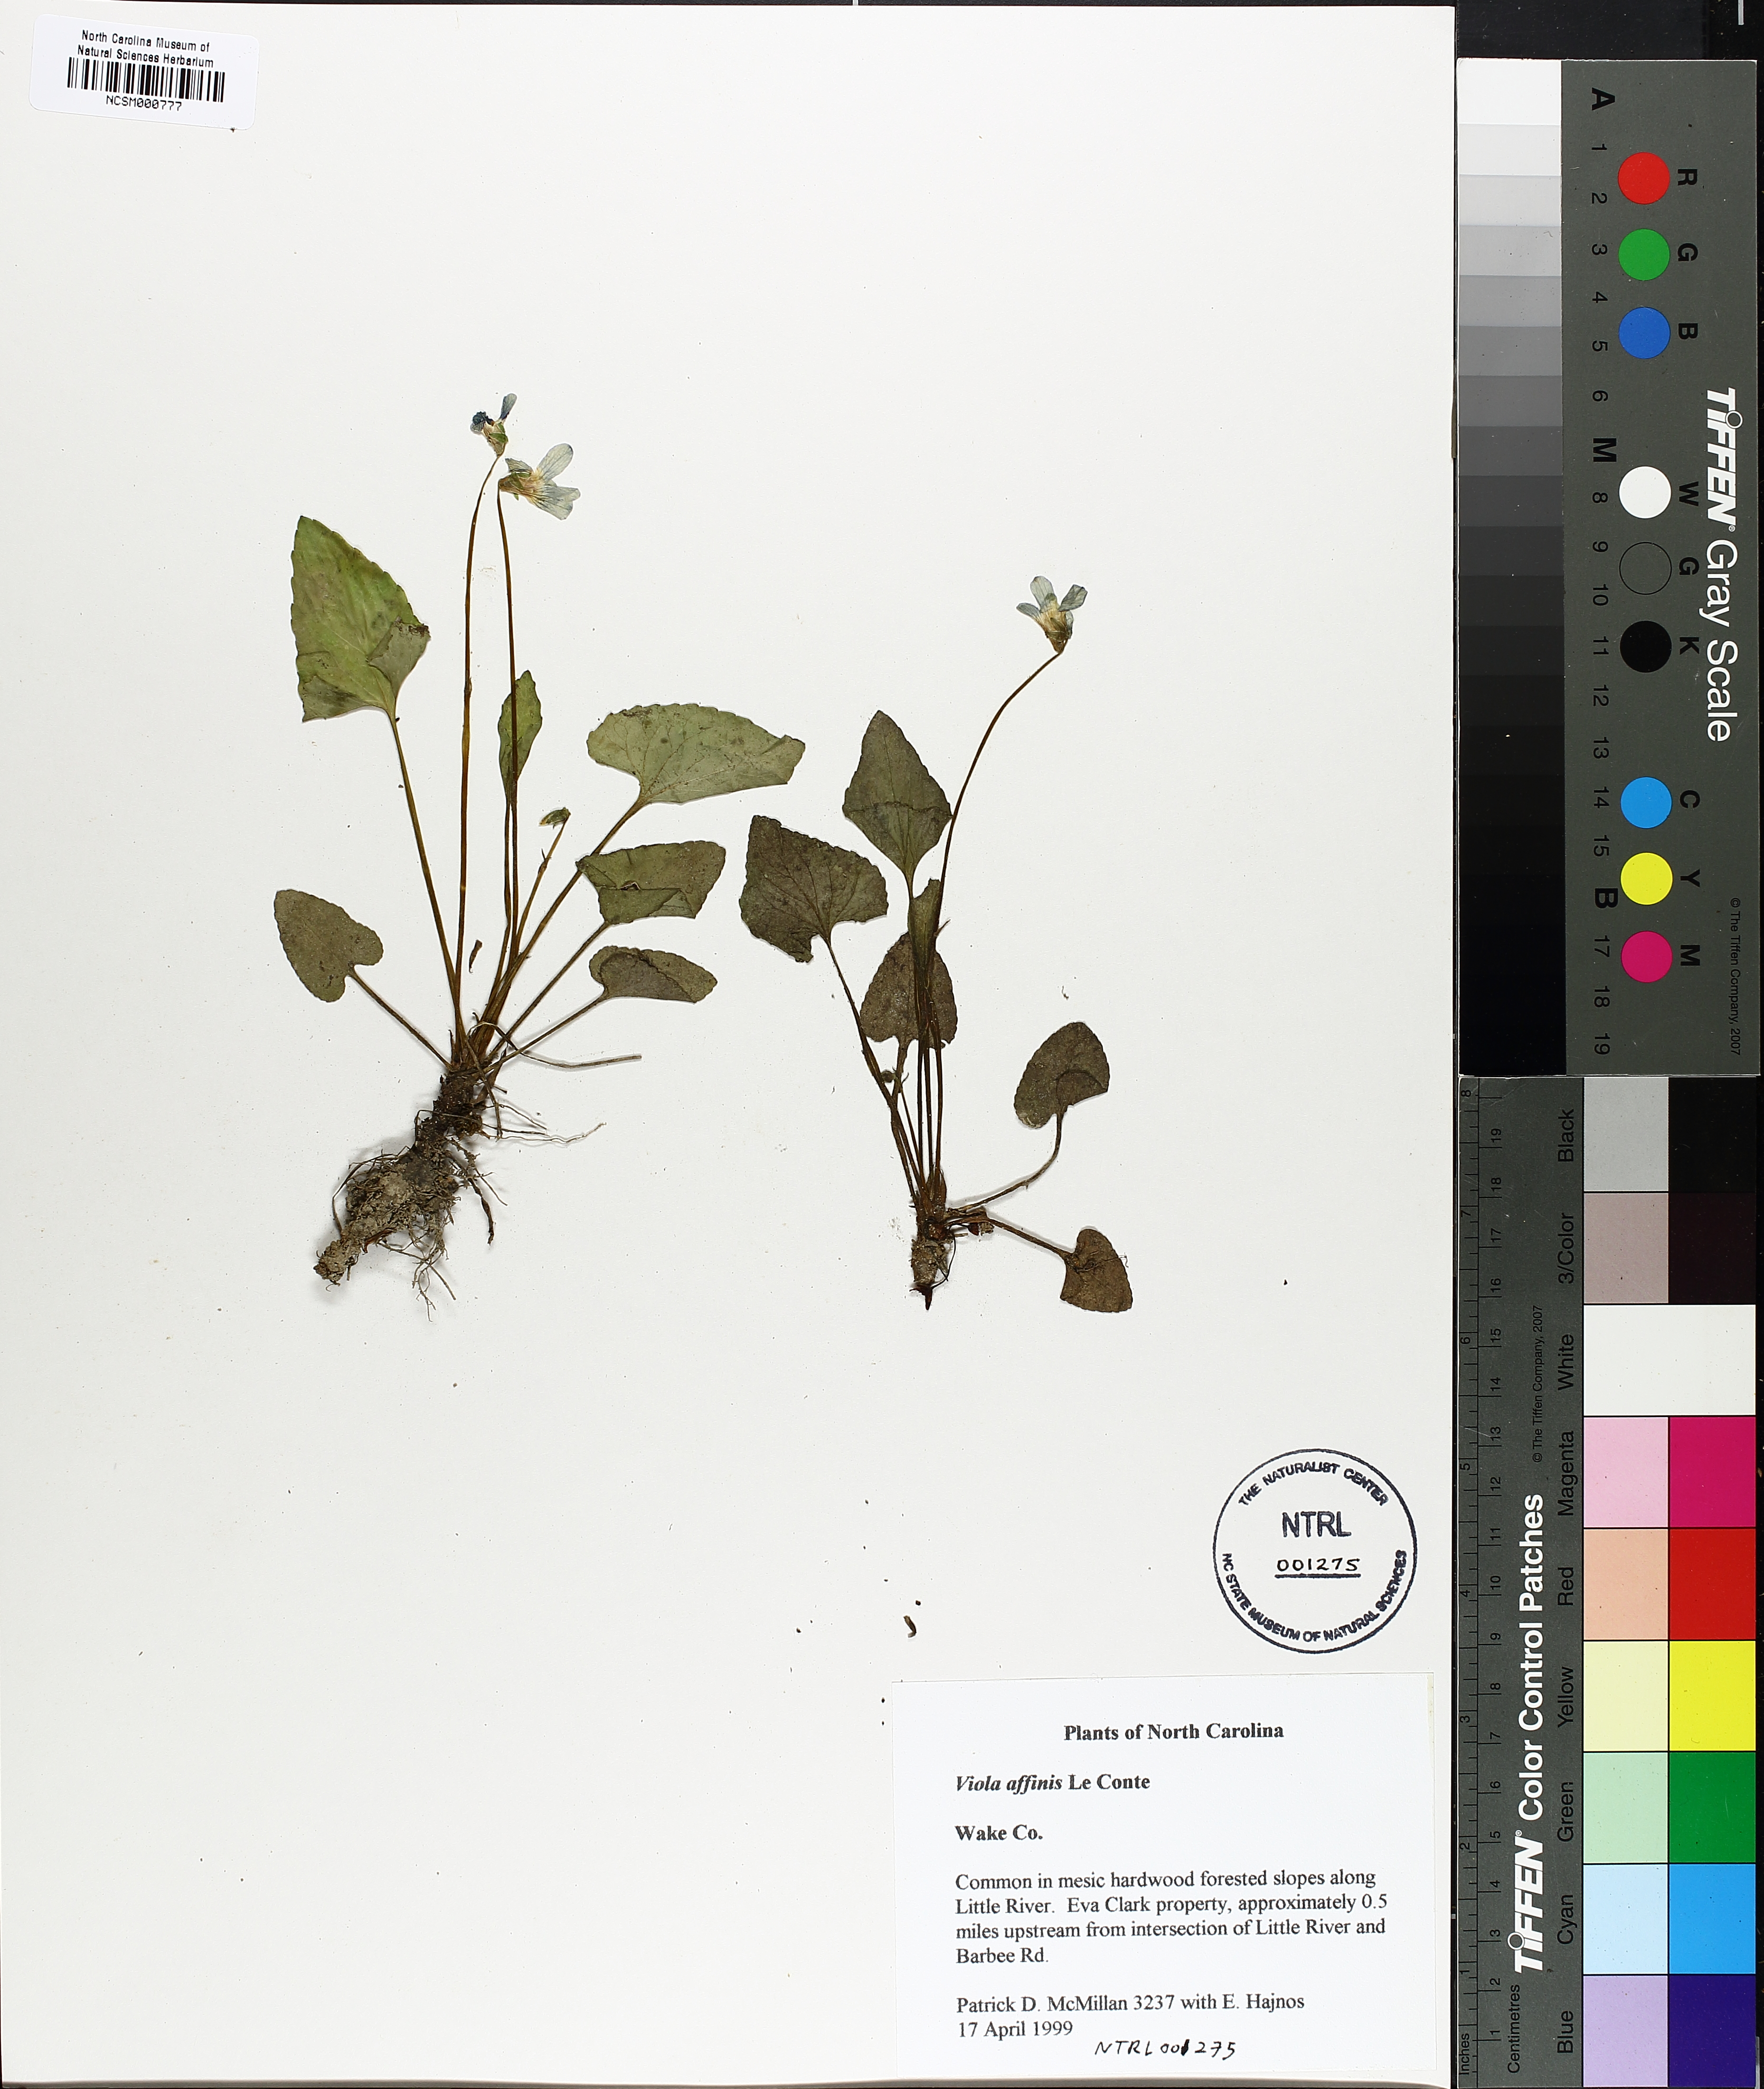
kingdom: Plantae
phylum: Tracheophyta
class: Magnoliopsida
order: Malpighiales
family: Violaceae
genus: Viola
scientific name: Viola affinis
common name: Leconte's violet
